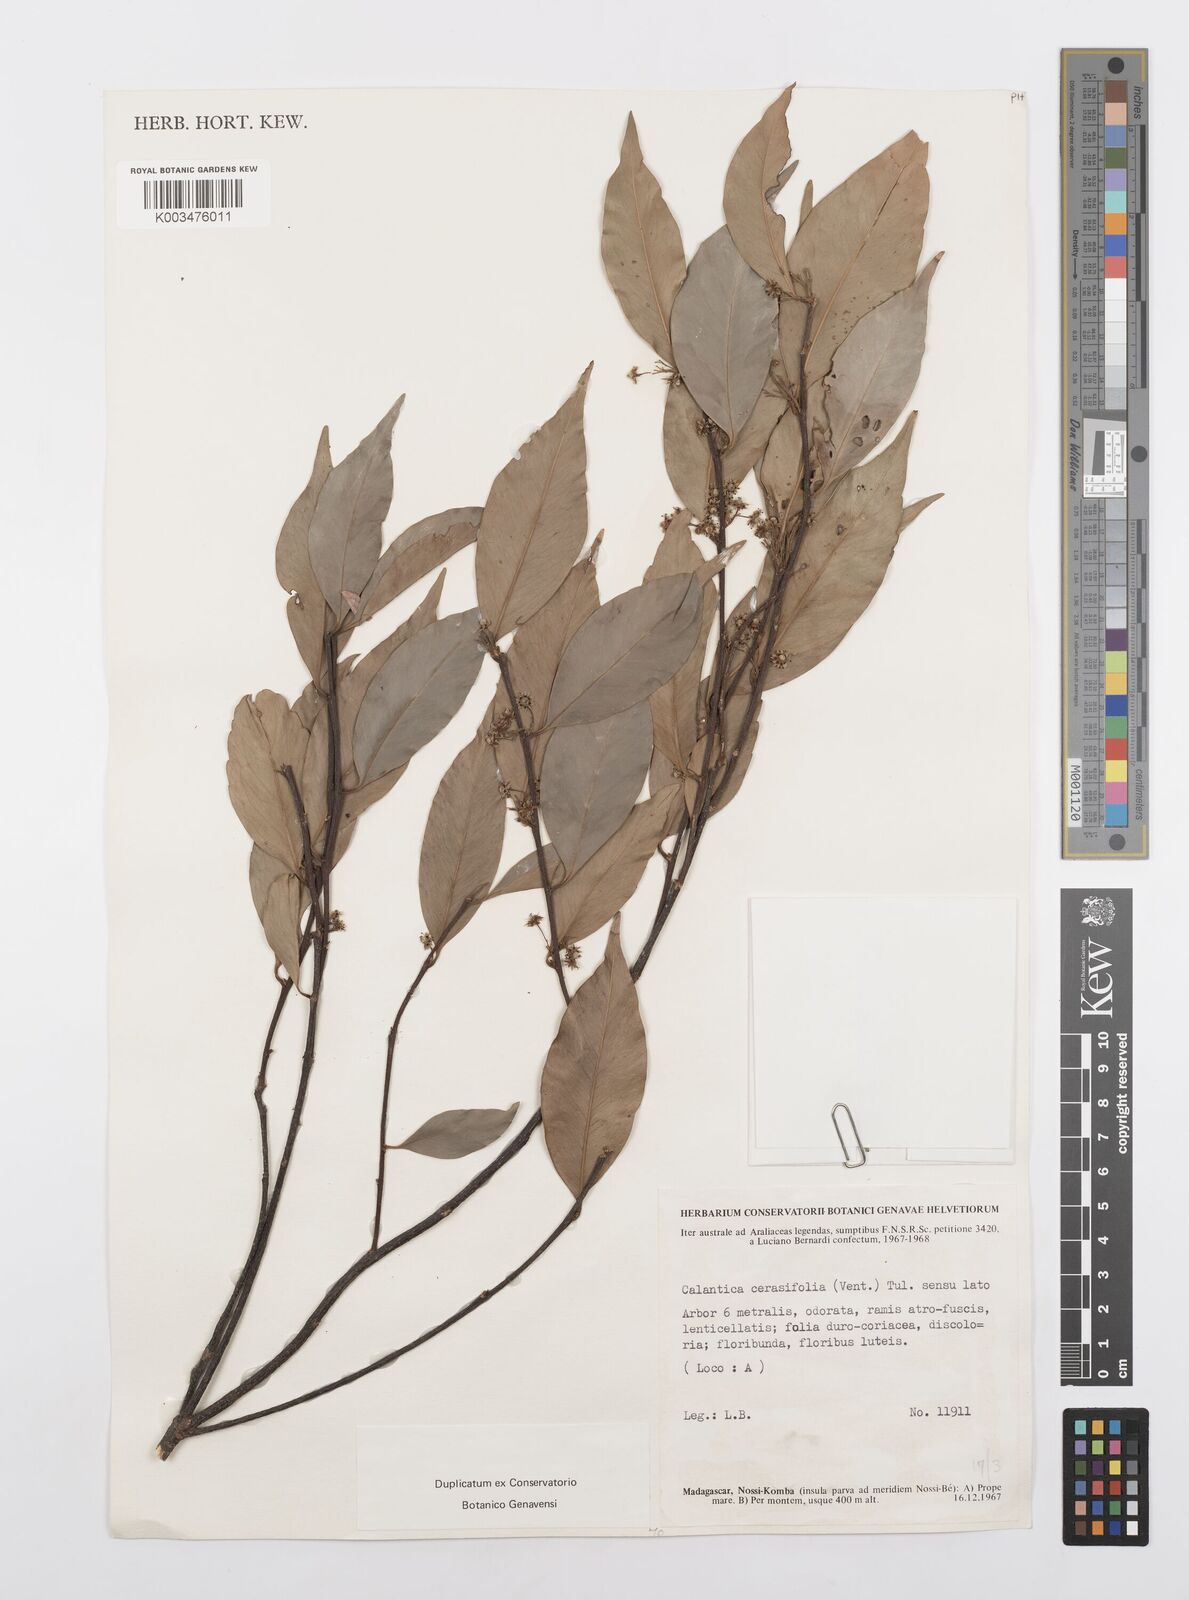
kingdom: Plantae
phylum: Tracheophyta
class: Magnoliopsida
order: Malpighiales
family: Salicaceae
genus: Calantica
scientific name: Calantica cerasifolia
